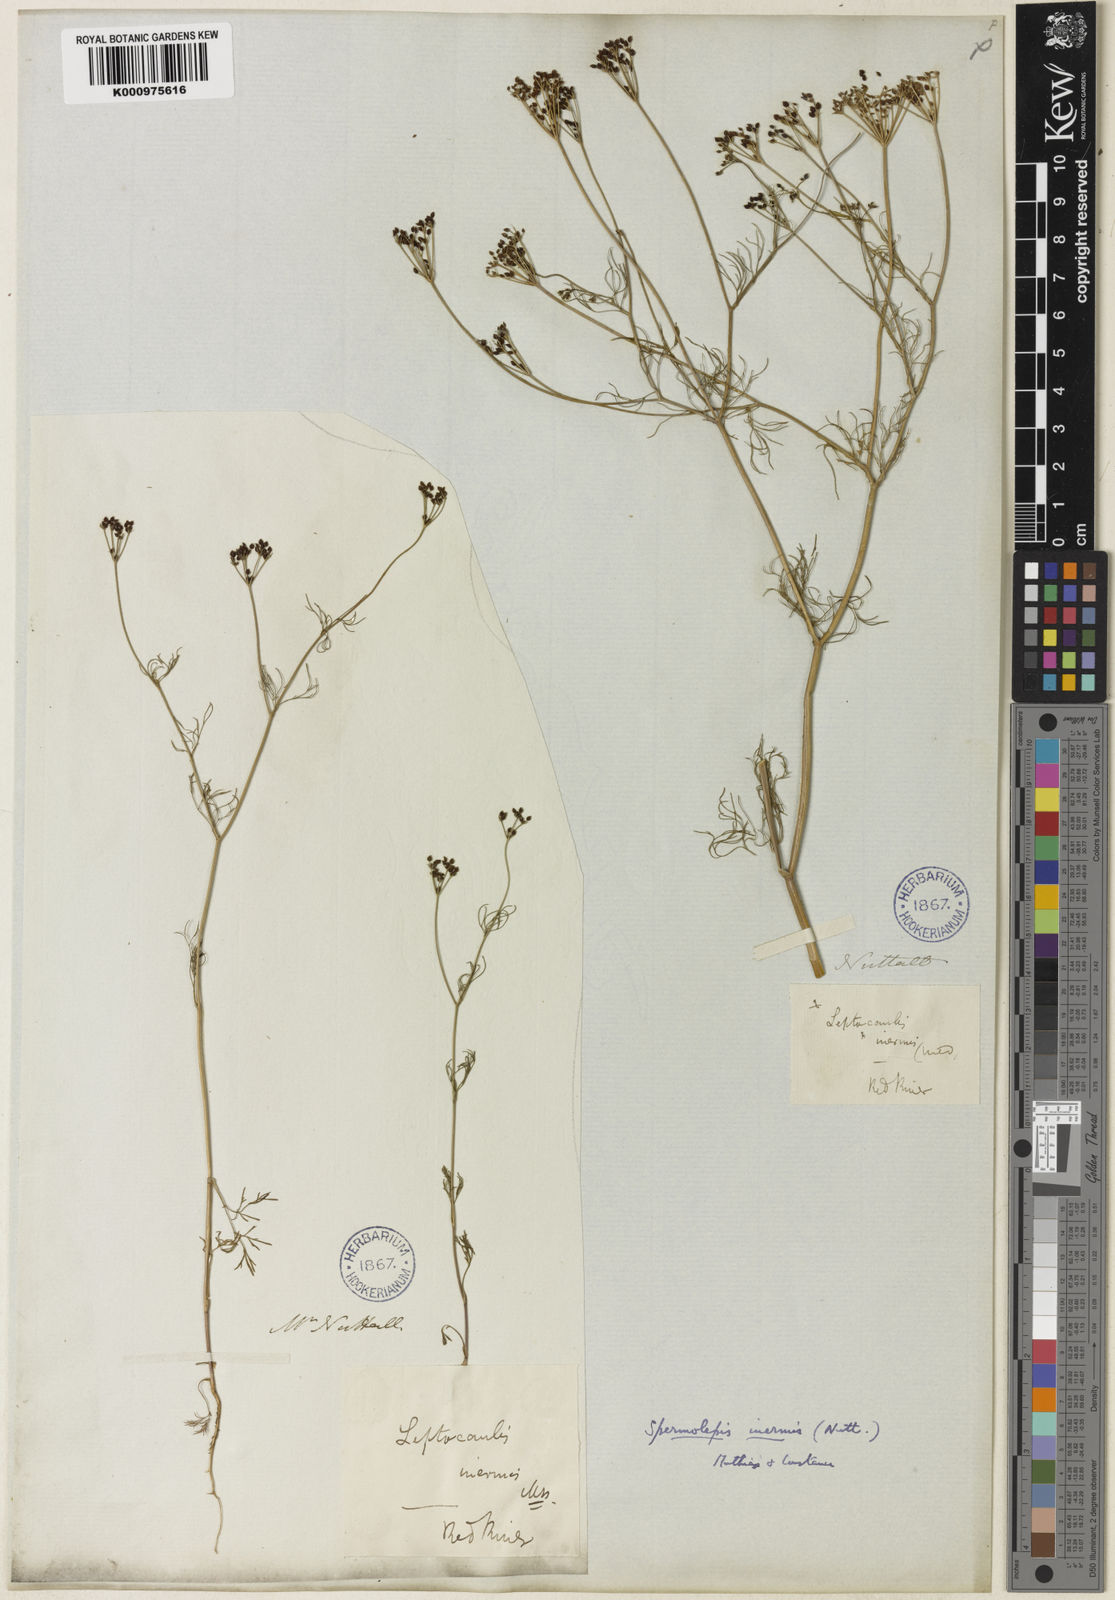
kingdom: Plantae
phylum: Tracheophyta
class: Magnoliopsida
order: Apiales
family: Apiaceae
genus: Spermolepis
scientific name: Spermolepis inermis
